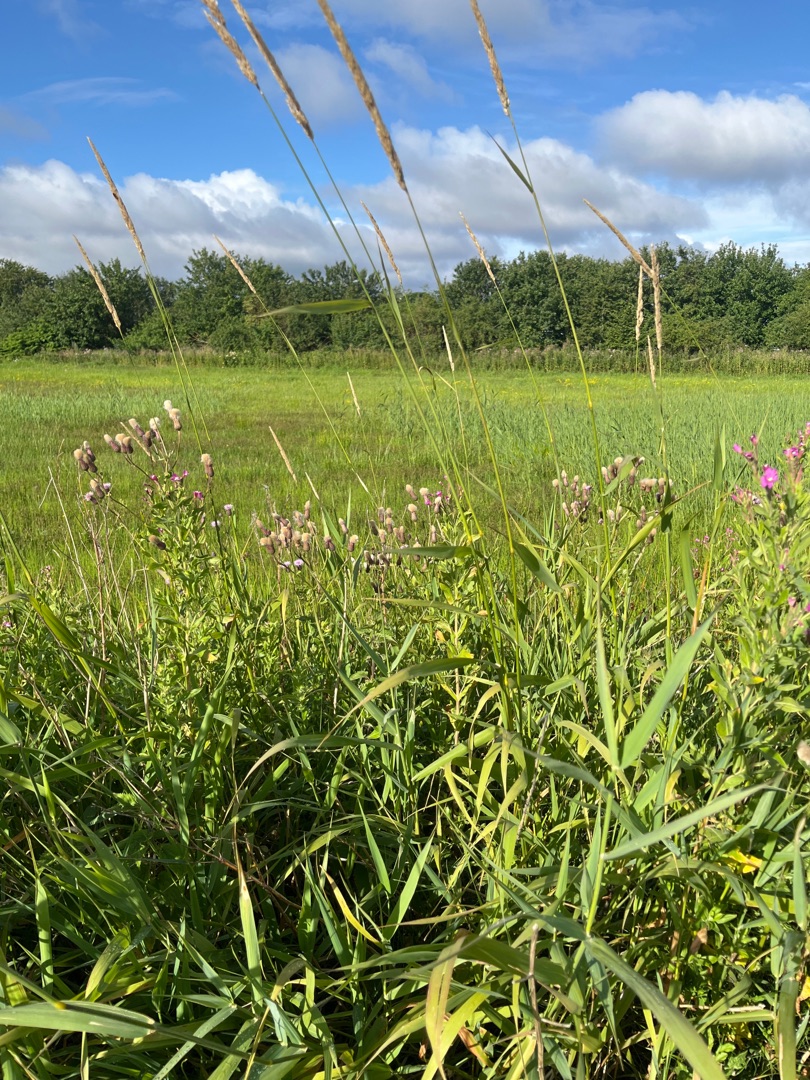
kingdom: Plantae
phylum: Tracheophyta
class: Liliopsida
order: Poales
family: Poaceae
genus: Phalaris
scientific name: Phalaris arundinacea
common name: Rørgræs
